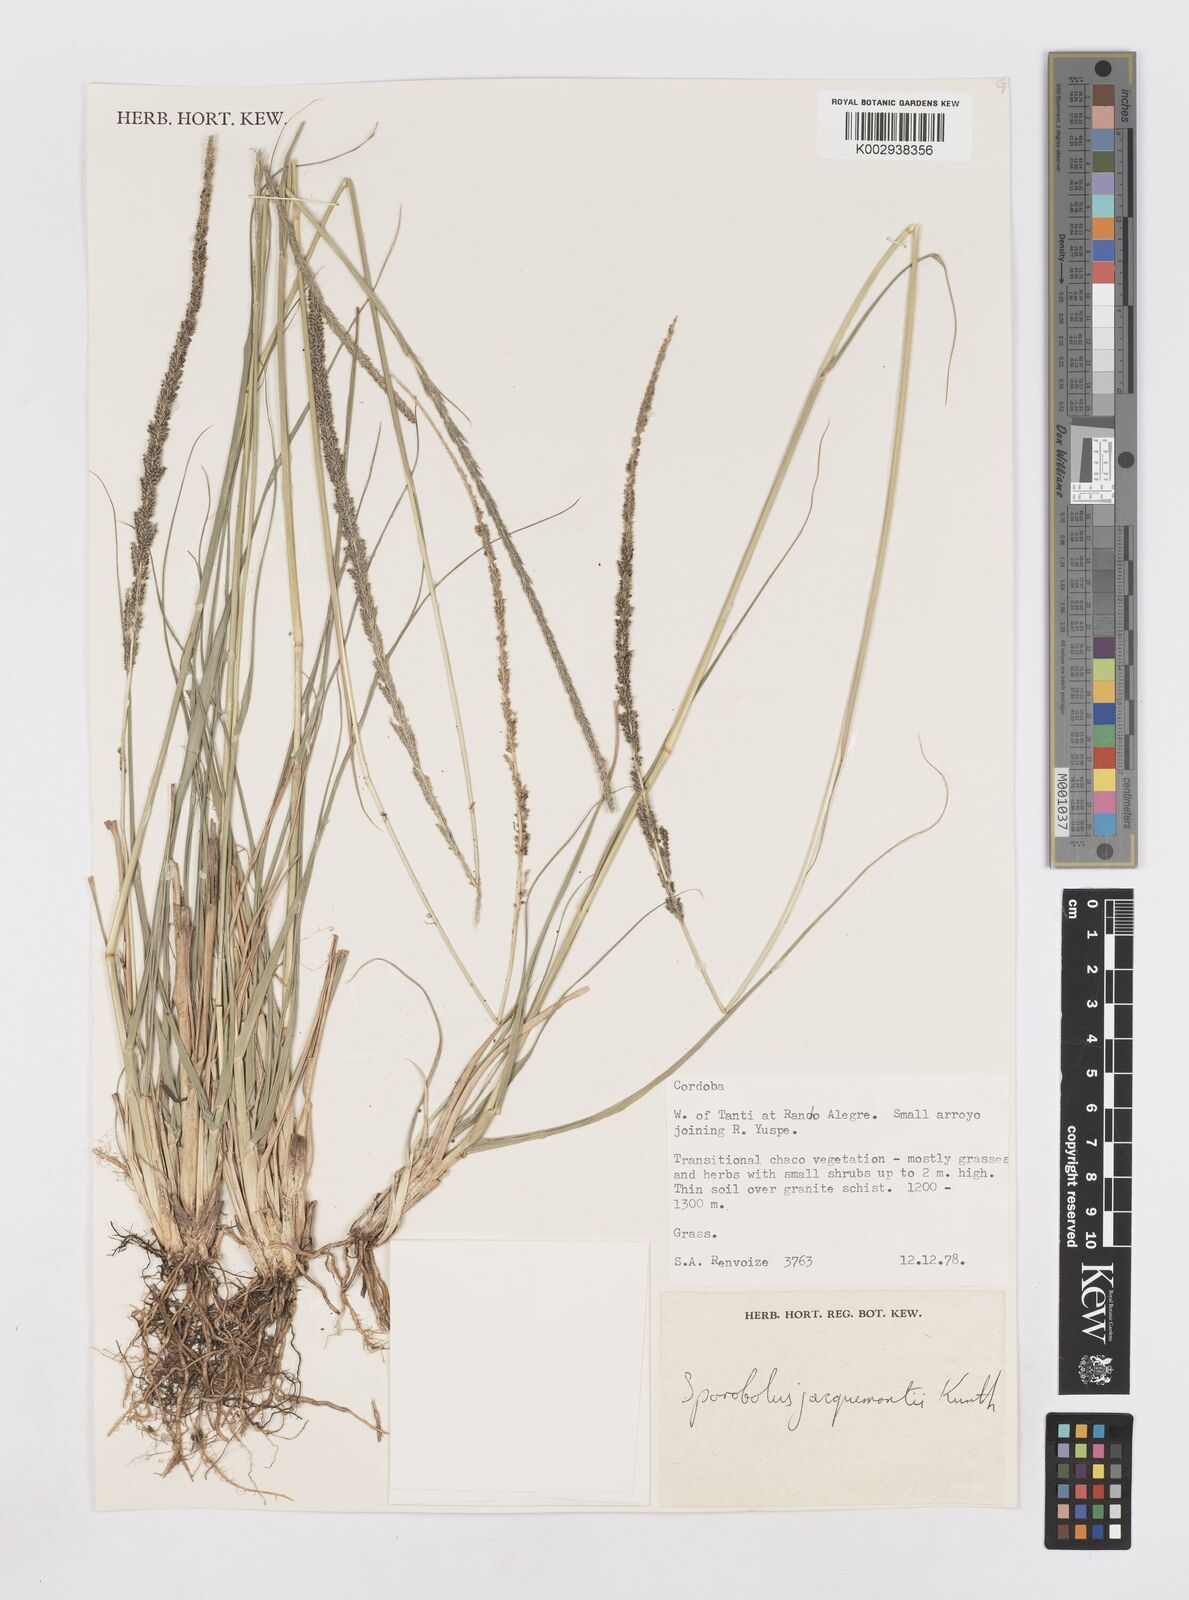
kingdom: Plantae
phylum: Tracheophyta
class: Liliopsida
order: Poales
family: Poaceae
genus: Sporobolus
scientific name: Sporobolus pyramidalis
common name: West indian dropseed
